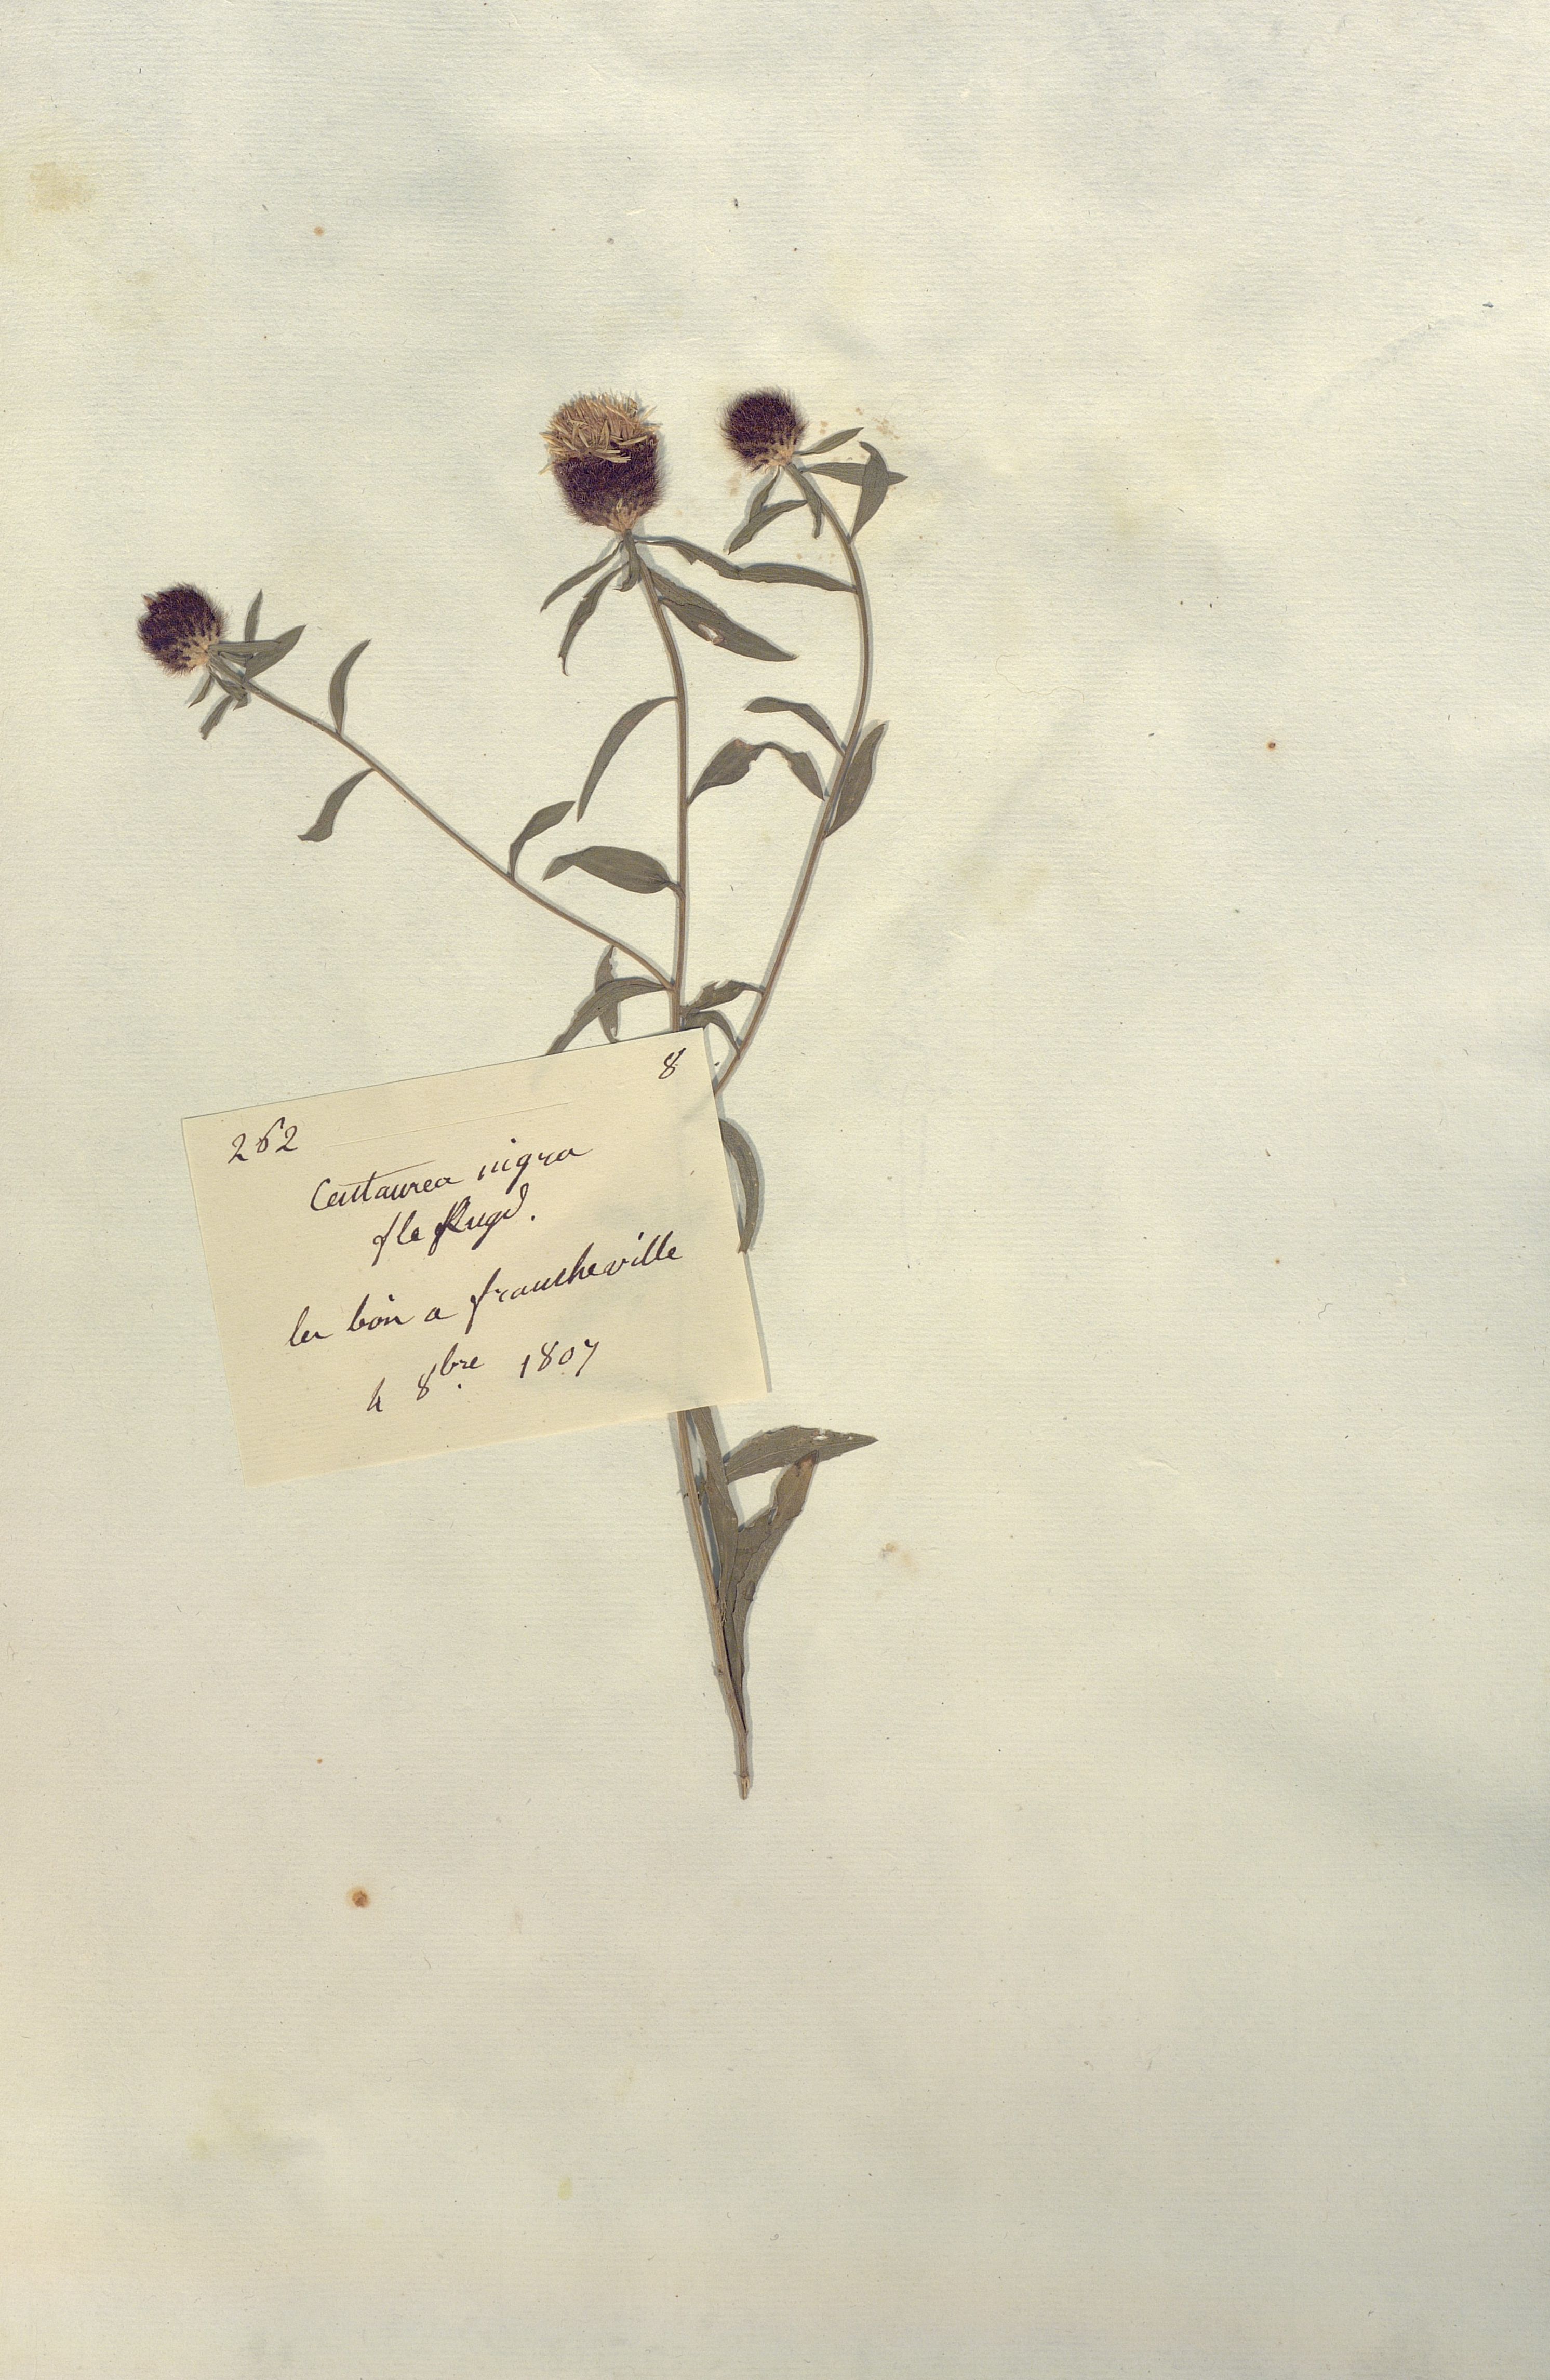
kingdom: Plantae
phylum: Tracheophyta
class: Magnoliopsida
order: Asterales
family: Asteraceae
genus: Centaurea
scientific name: Centaurea nigra
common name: Lesser knapweed
